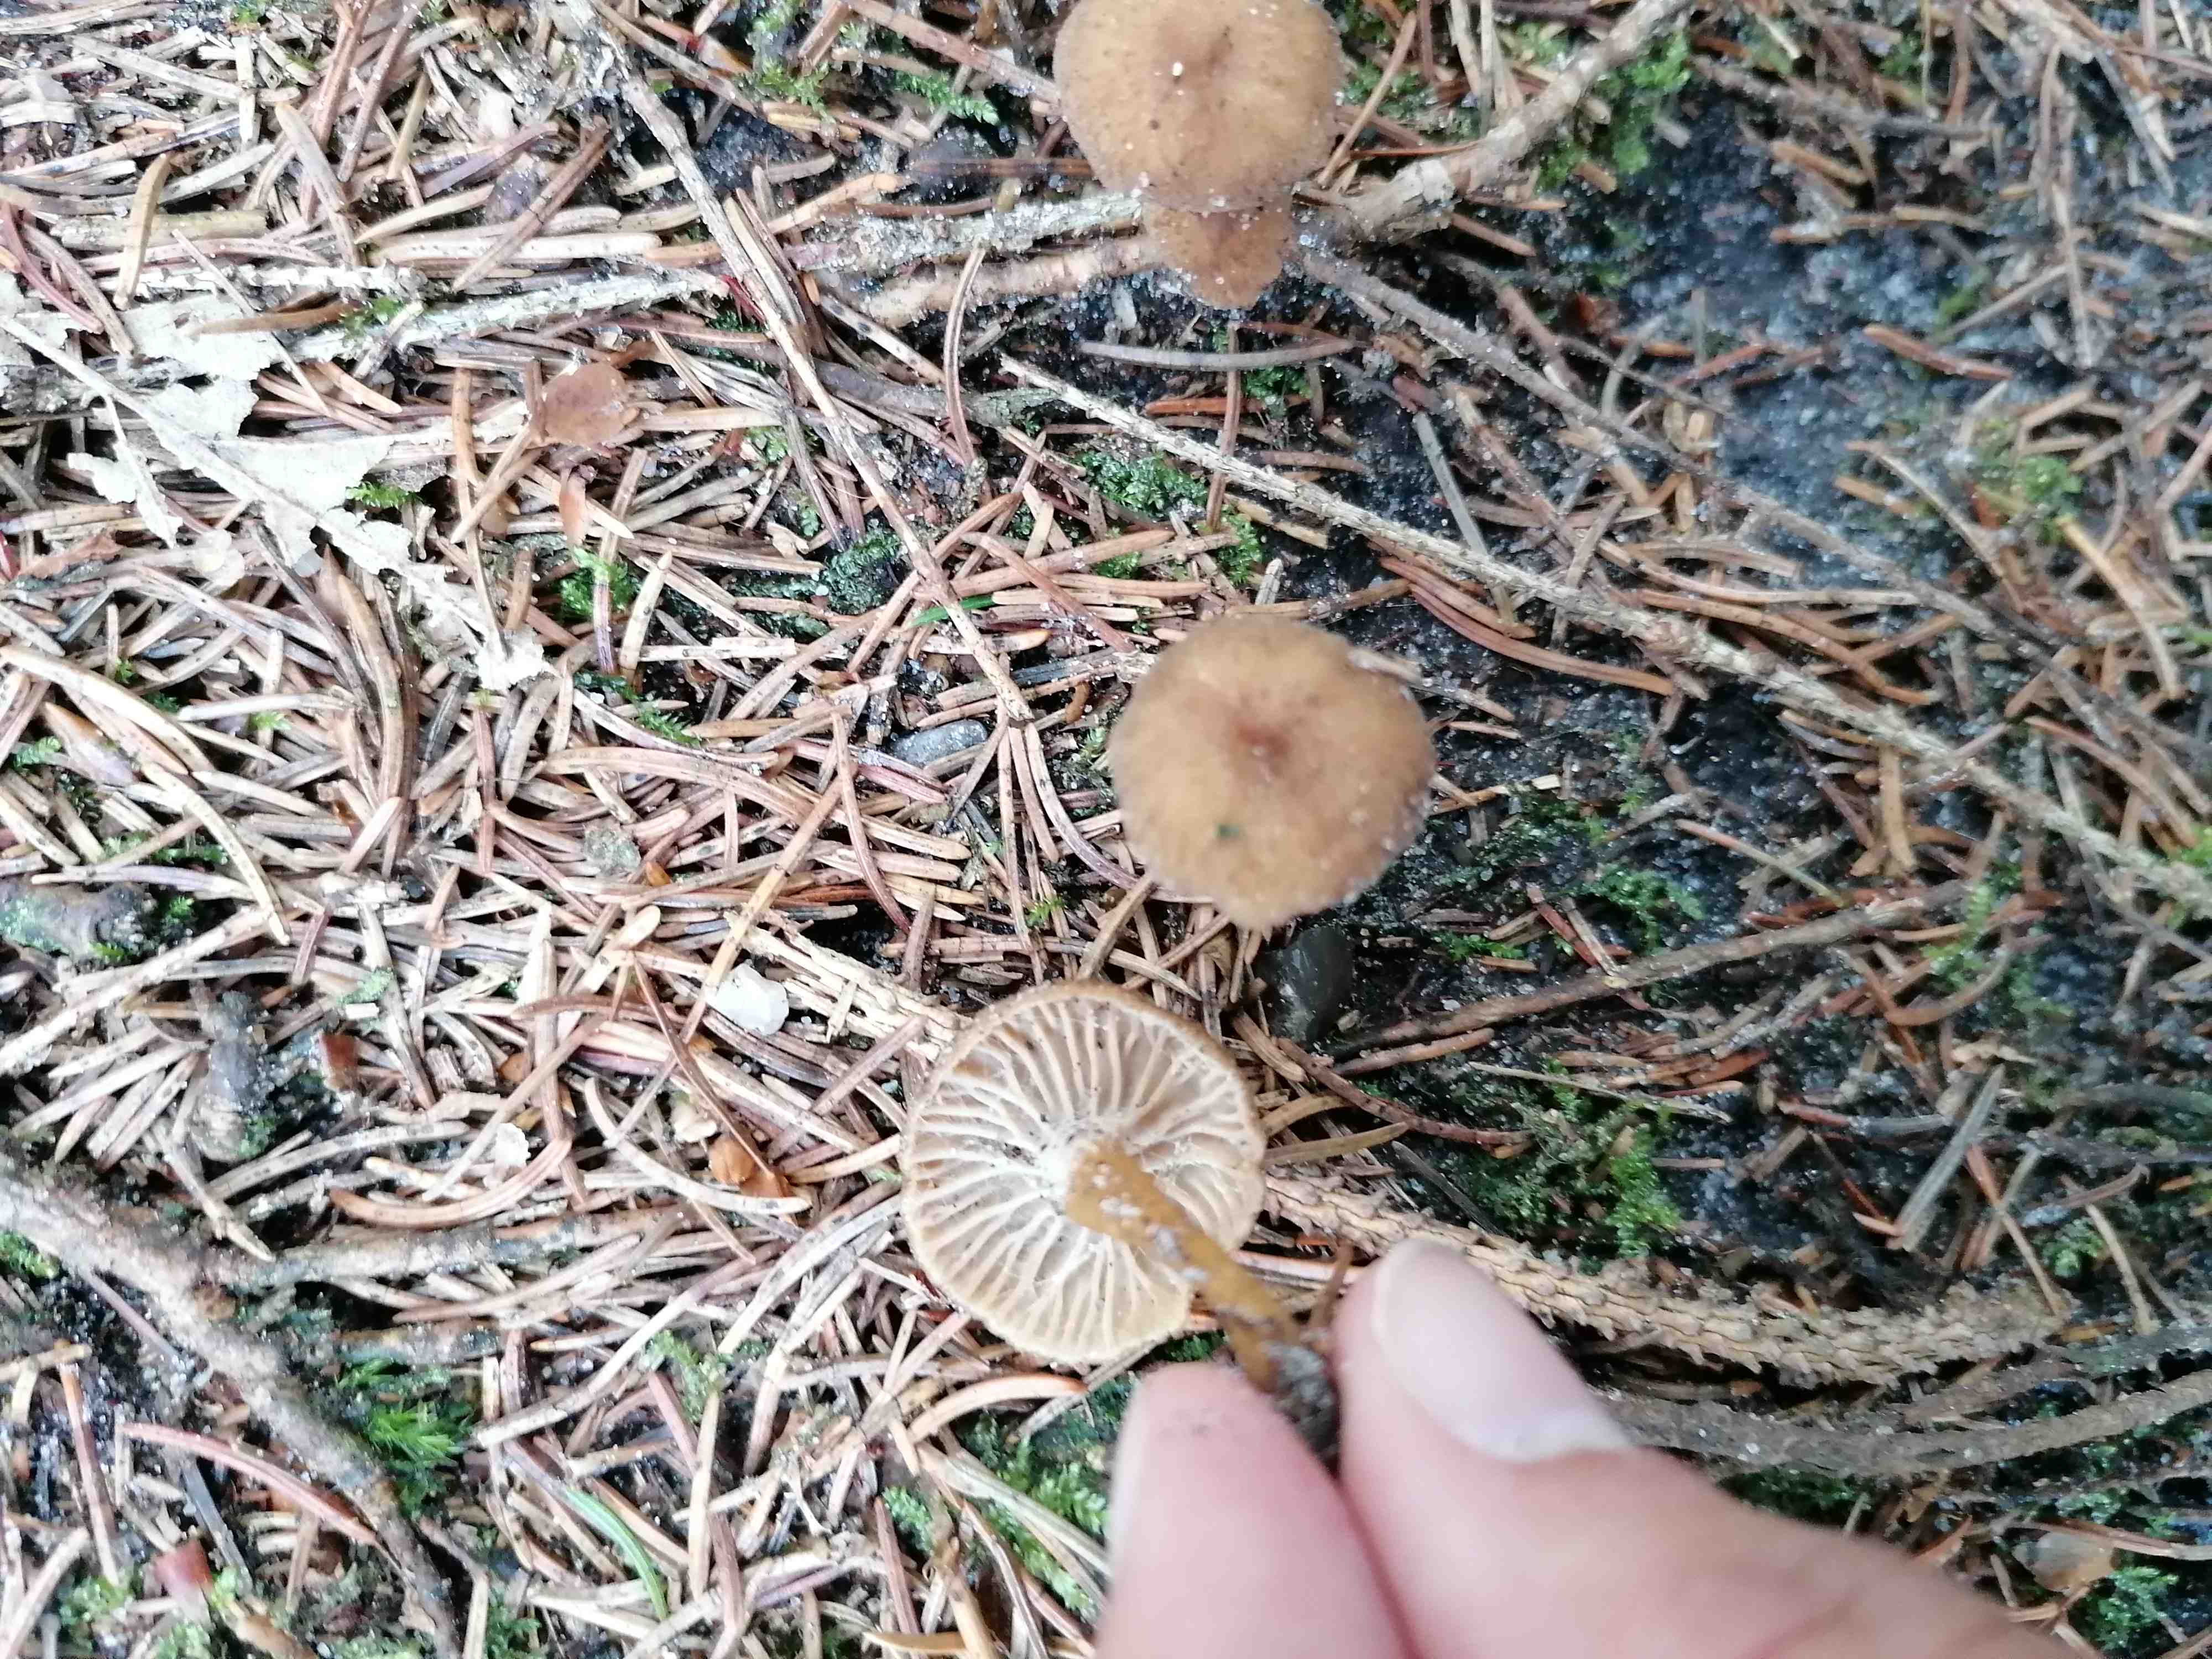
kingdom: Fungi
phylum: Basidiomycota
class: Agaricomycetes
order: Cantharellales
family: Hydnaceae
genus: Craterellus
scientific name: Craterellus tubaeformis
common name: tragt-kantarel
